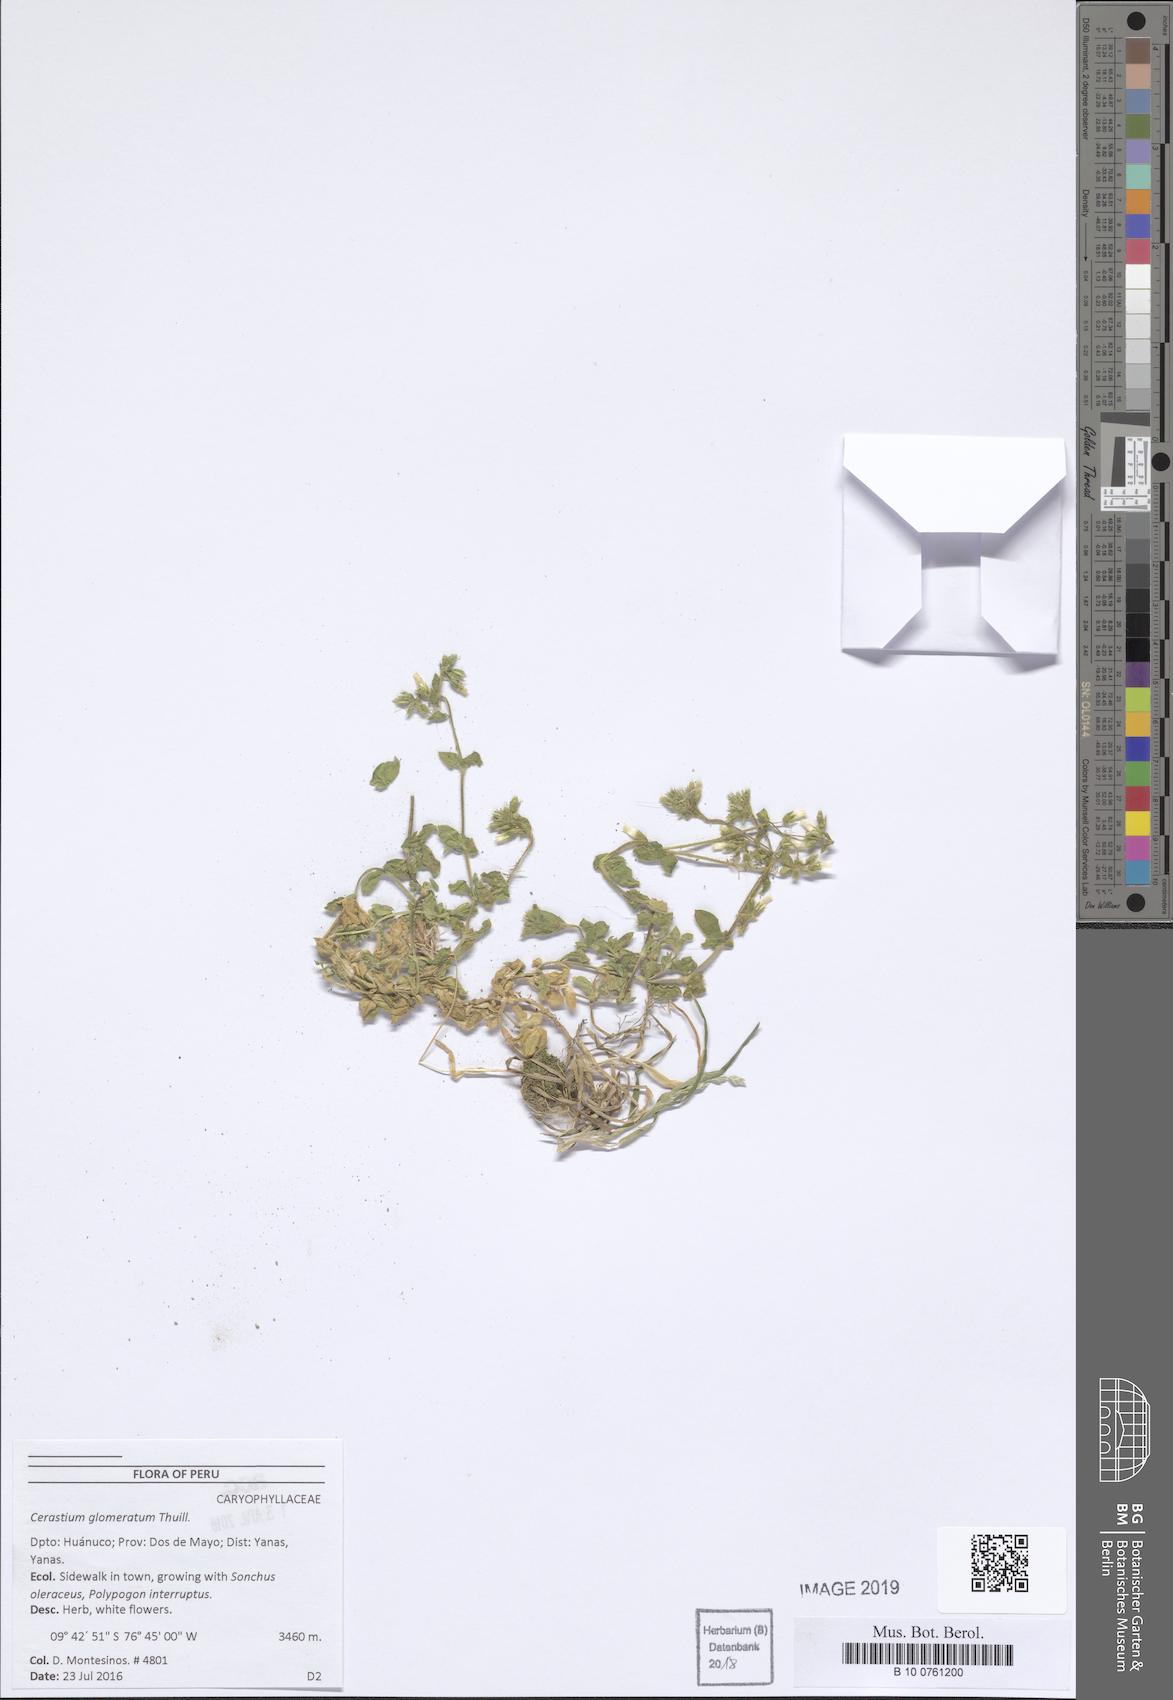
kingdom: Plantae
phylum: Tracheophyta
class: Magnoliopsida
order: Caryophyllales
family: Caryophyllaceae
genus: Cerastium
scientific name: Cerastium glomeratum
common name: Sticky chickweed
